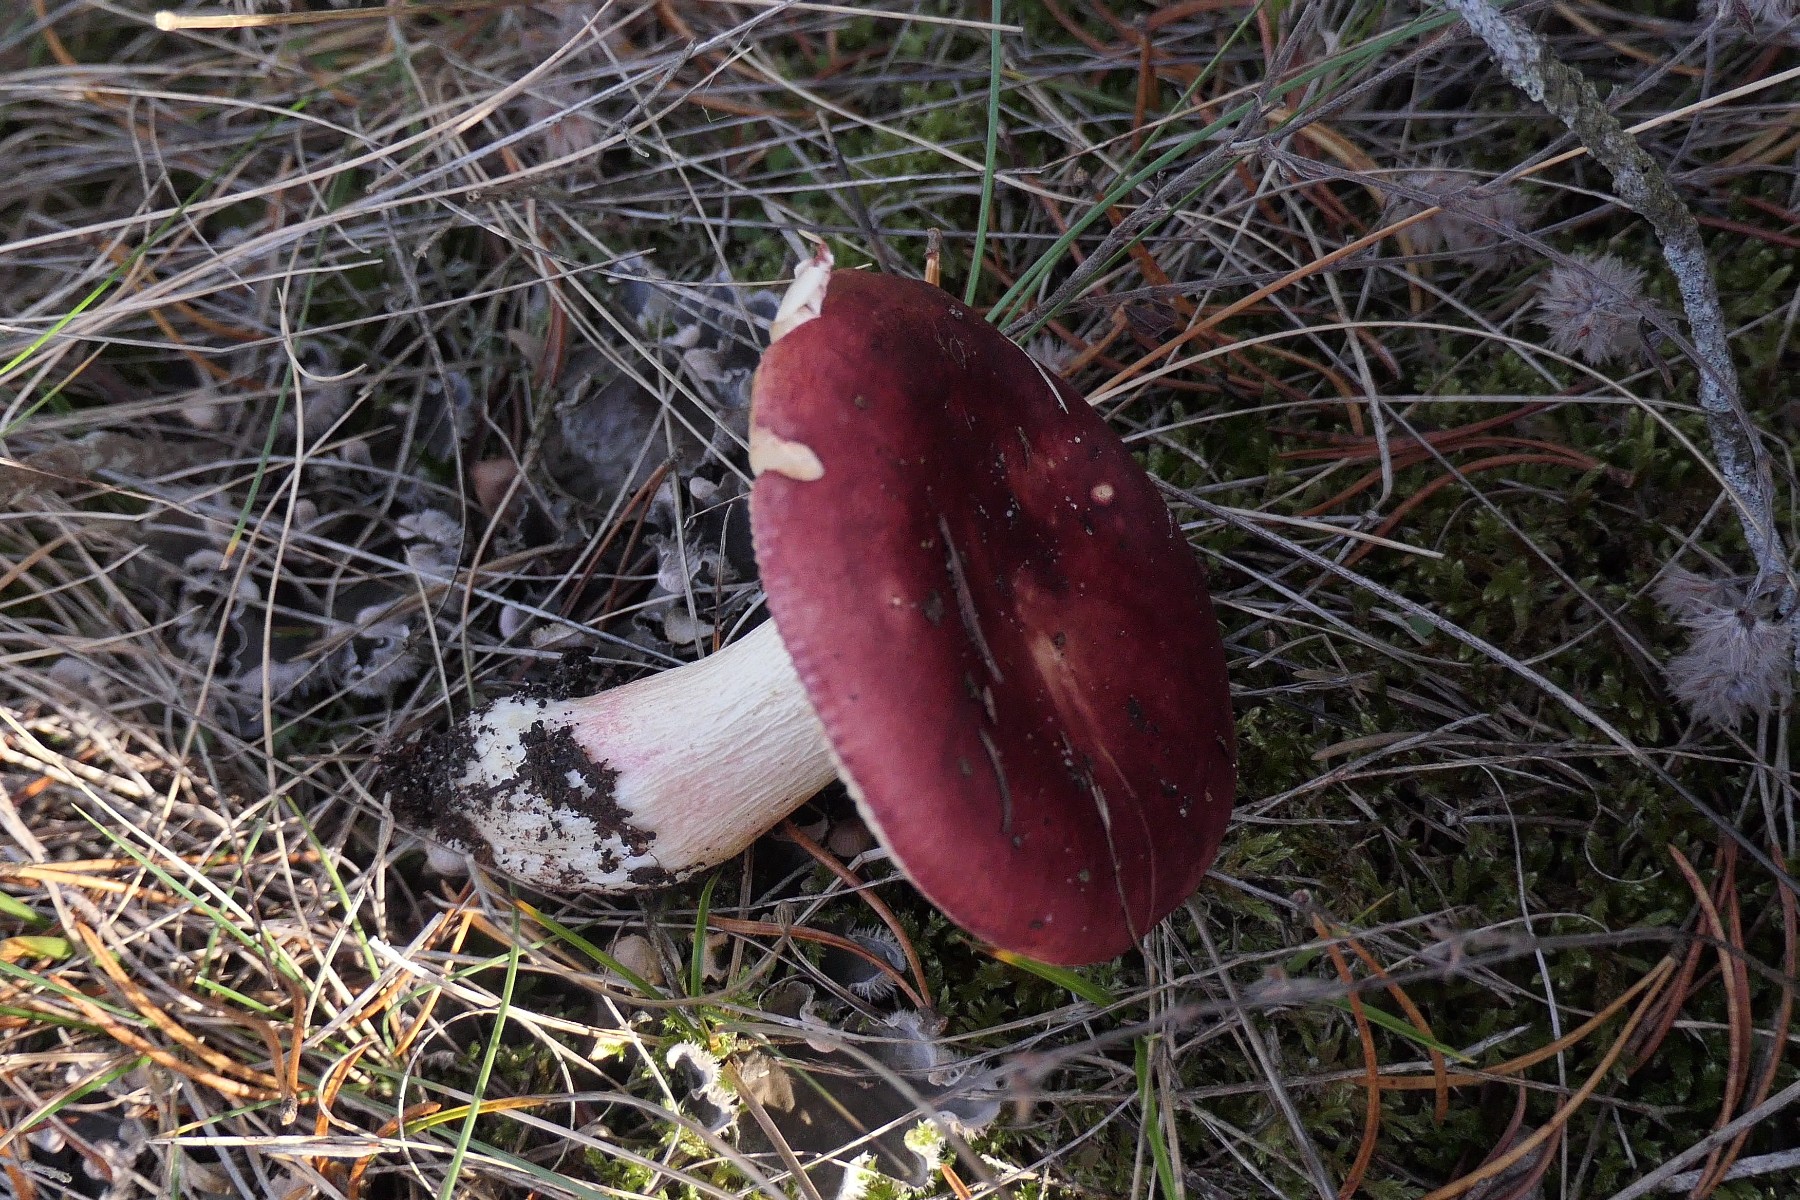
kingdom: Fungi
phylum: Basidiomycota
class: Agaricomycetes
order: Russulales
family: Russulaceae
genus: Russula
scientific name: Russula xerampelina
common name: hummer-skørhat
